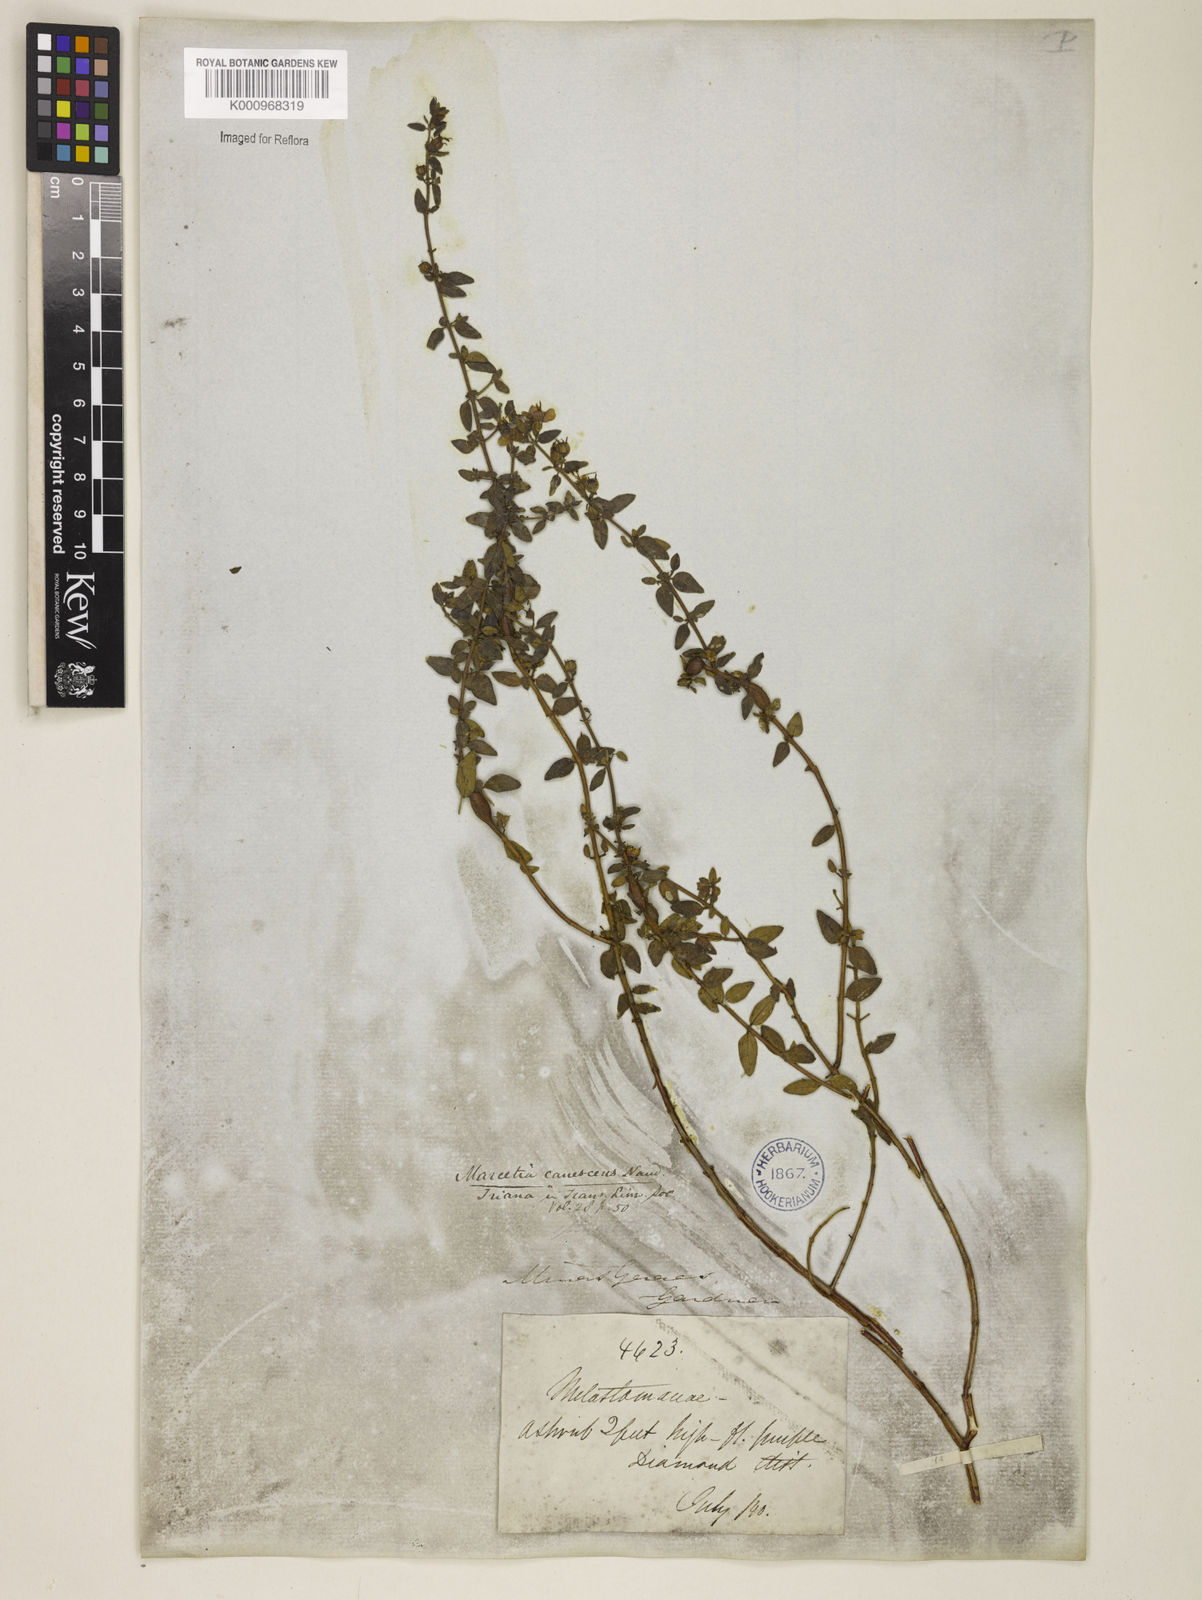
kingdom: Plantae
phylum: Tracheophyta
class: Magnoliopsida
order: Myrtales
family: Melastomataceae
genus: Marcetia
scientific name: Marcetia canescens
